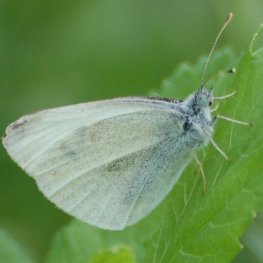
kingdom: Animalia
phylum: Arthropoda
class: Insecta
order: Lepidoptera
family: Pieridae
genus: Pieris
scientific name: Pieris rapae
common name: Cabbage White
